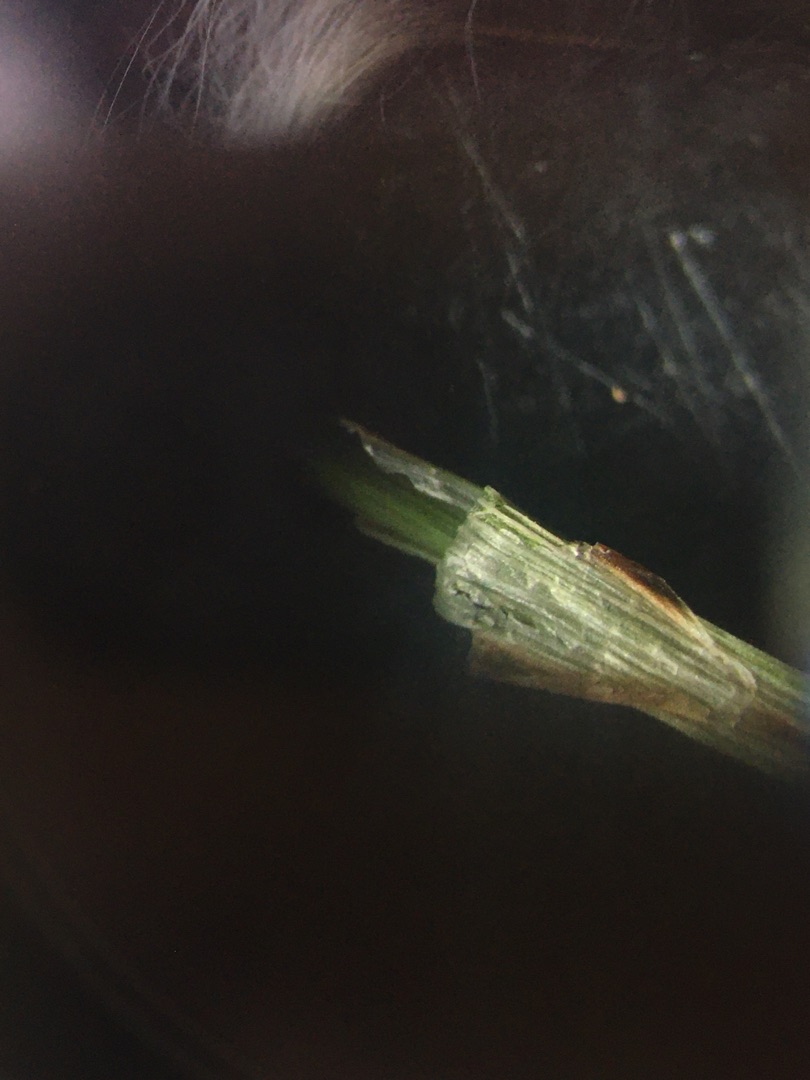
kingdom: Plantae
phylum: Tracheophyta
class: Liliopsida
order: Poales
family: Cyperaceae
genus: Carex
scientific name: Carex flacca
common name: Blågrøn star
